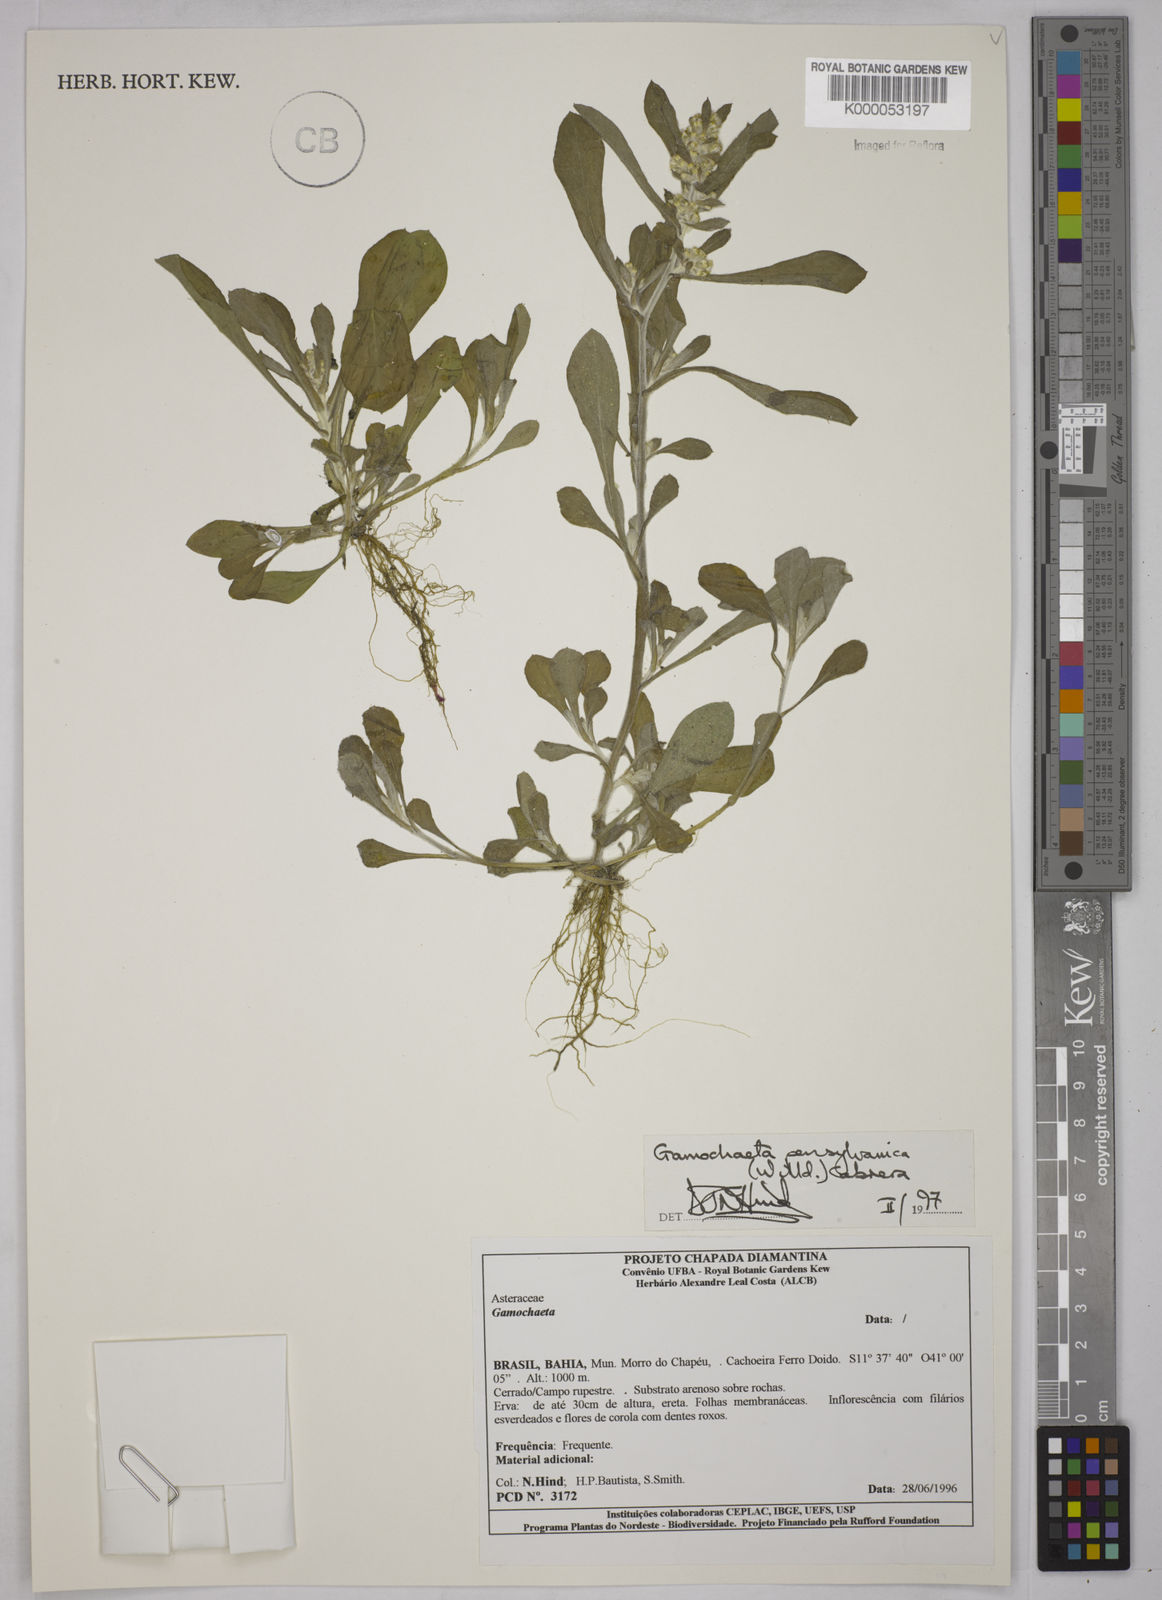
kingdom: Plantae
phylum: Tracheophyta
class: Magnoliopsida
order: Asterales
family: Asteraceae
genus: Gamochaeta
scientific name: Gamochaeta pensylvanica
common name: Pennsylvania everlasting
